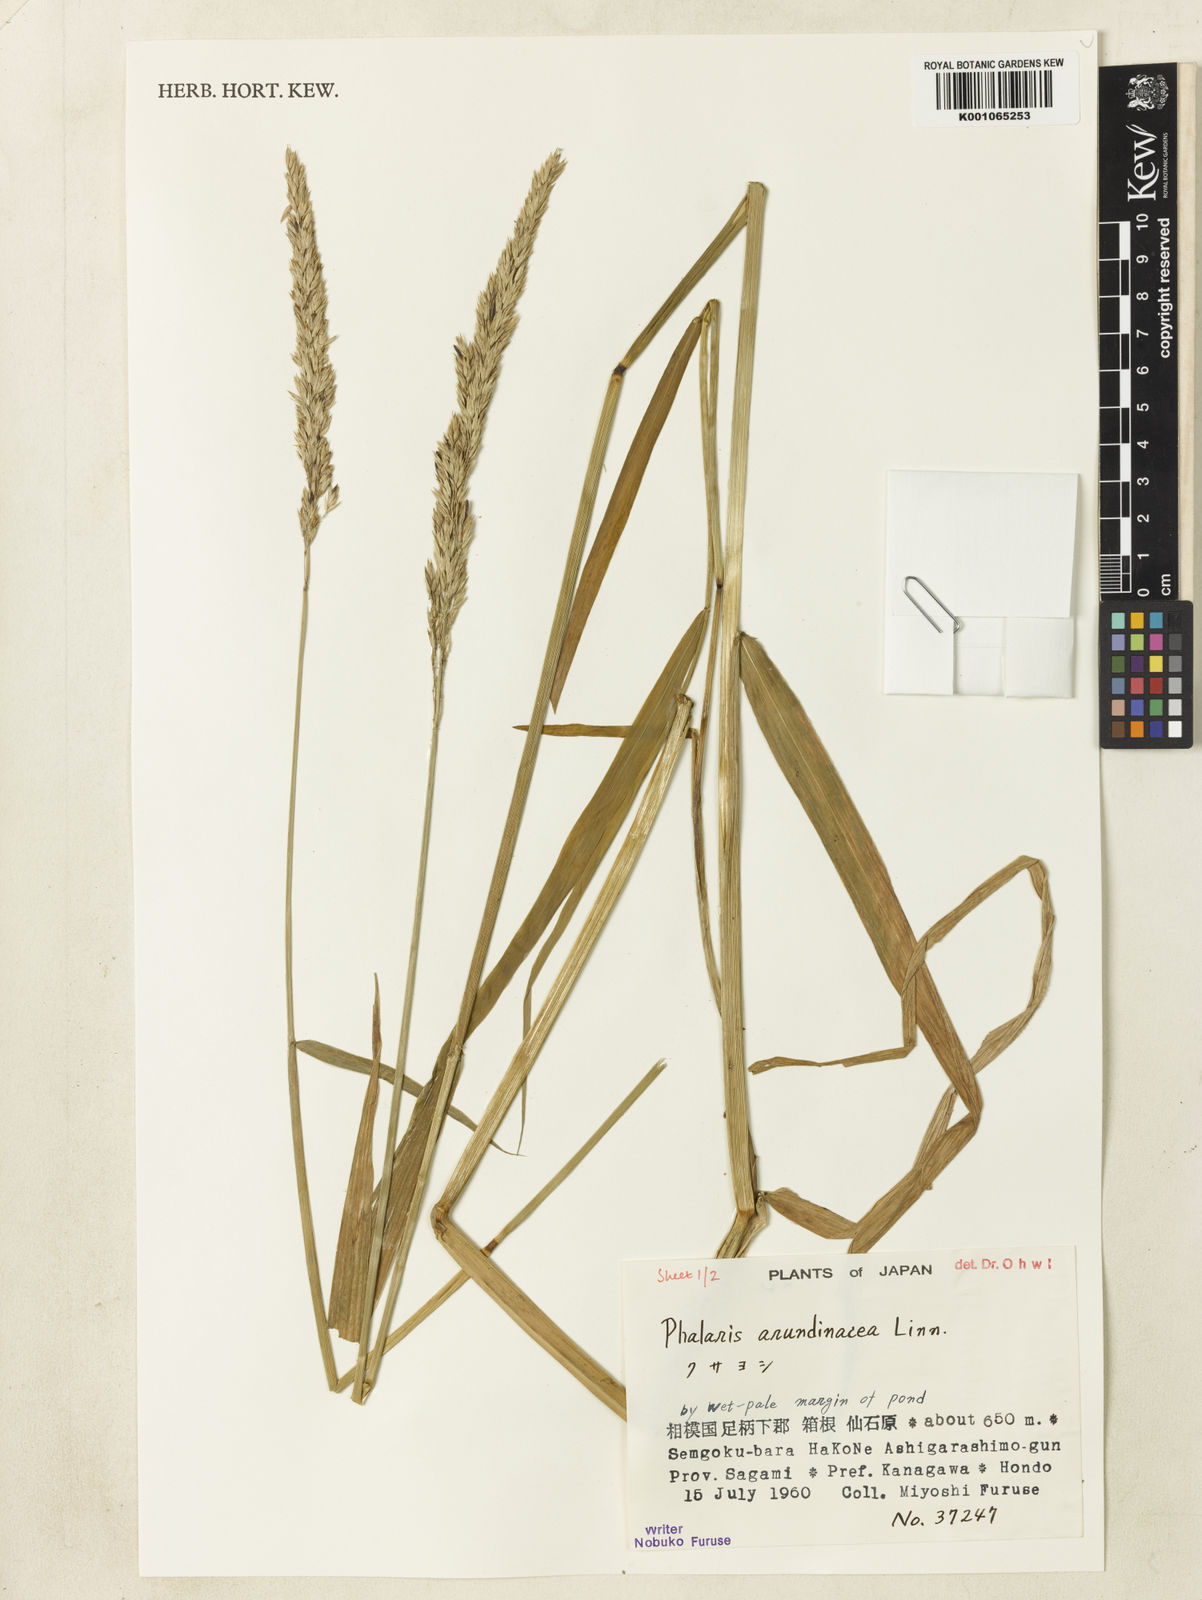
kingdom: Plantae
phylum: Tracheophyta
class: Liliopsida
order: Poales
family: Poaceae
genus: Phalaris
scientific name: Phalaris arundinacea
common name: Reed canary-grass
